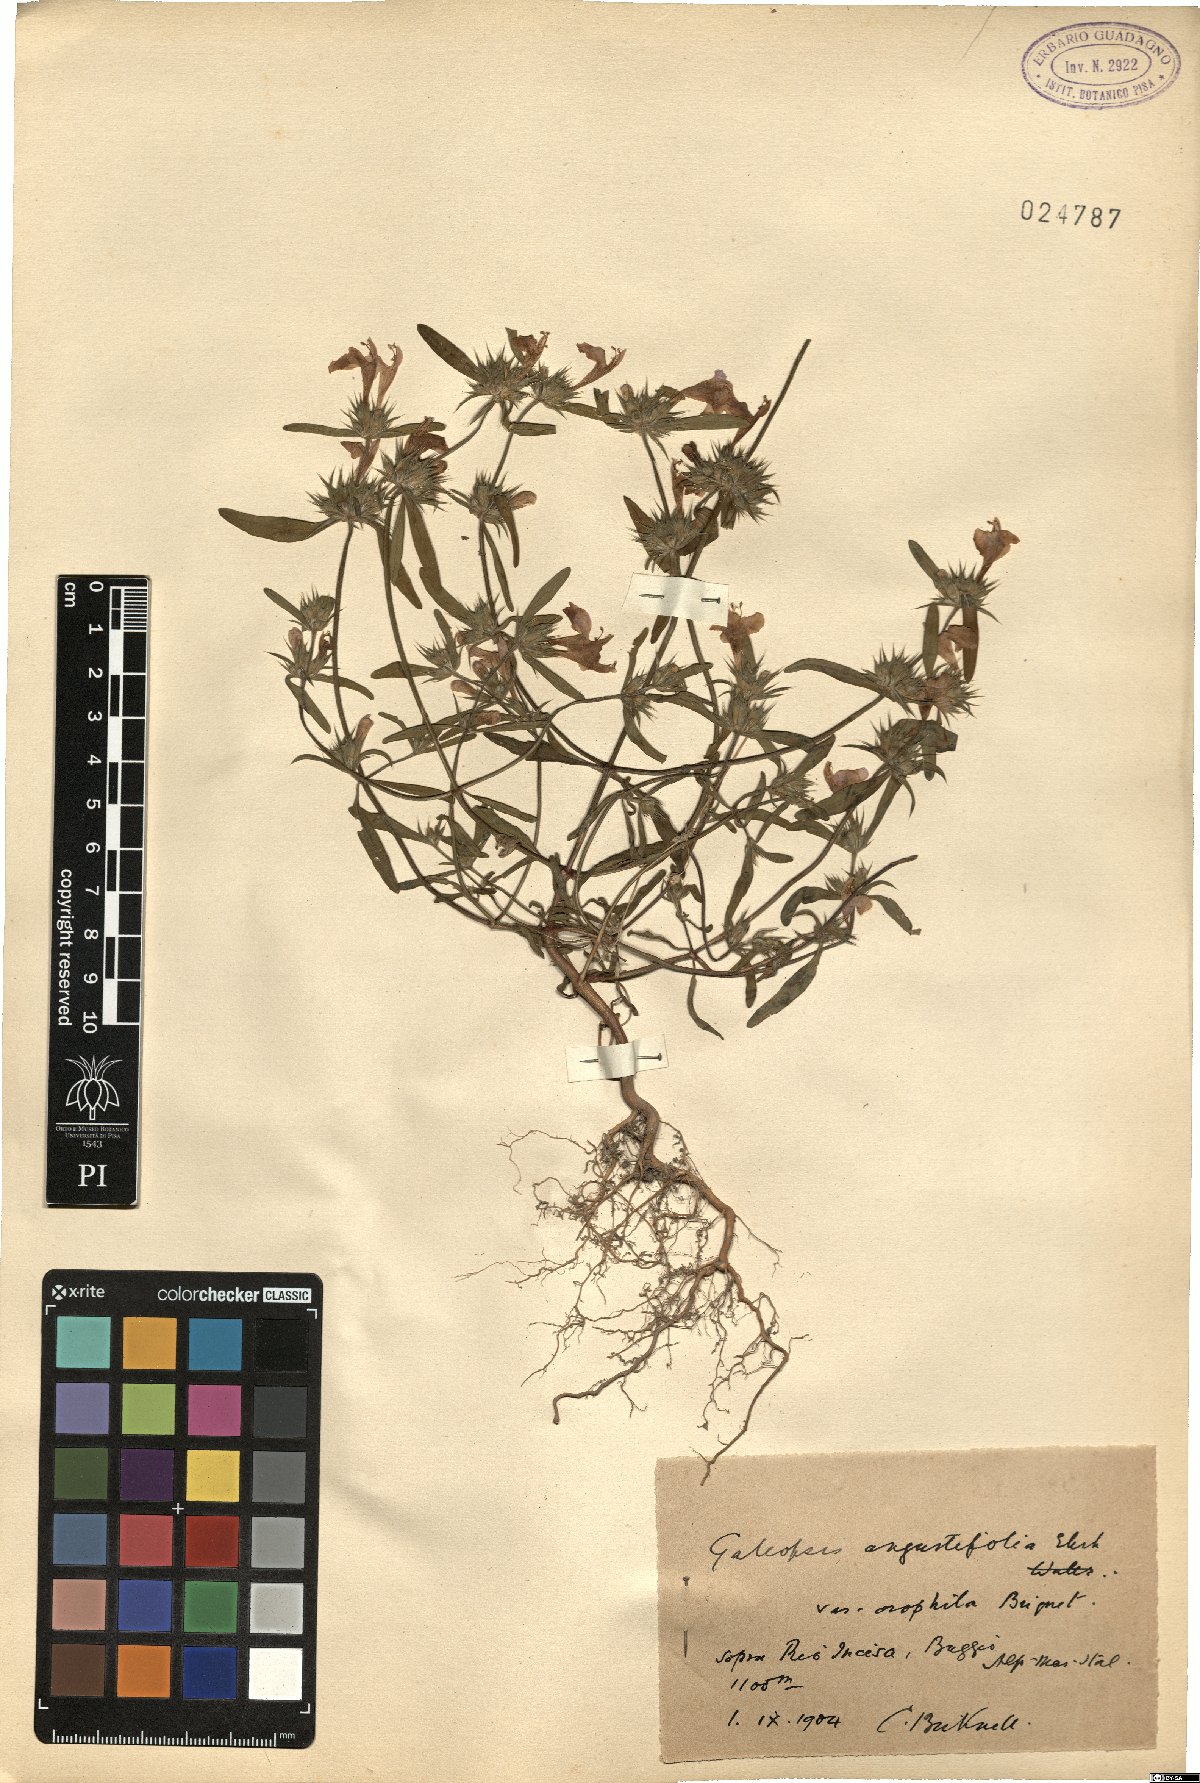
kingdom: Plantae
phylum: Tracheophyta
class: Magnoliopsida
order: Lamiales
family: Lamiaceae
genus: Galeopsis
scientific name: Galeopsis angustifolia
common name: Red hemp-nettle
